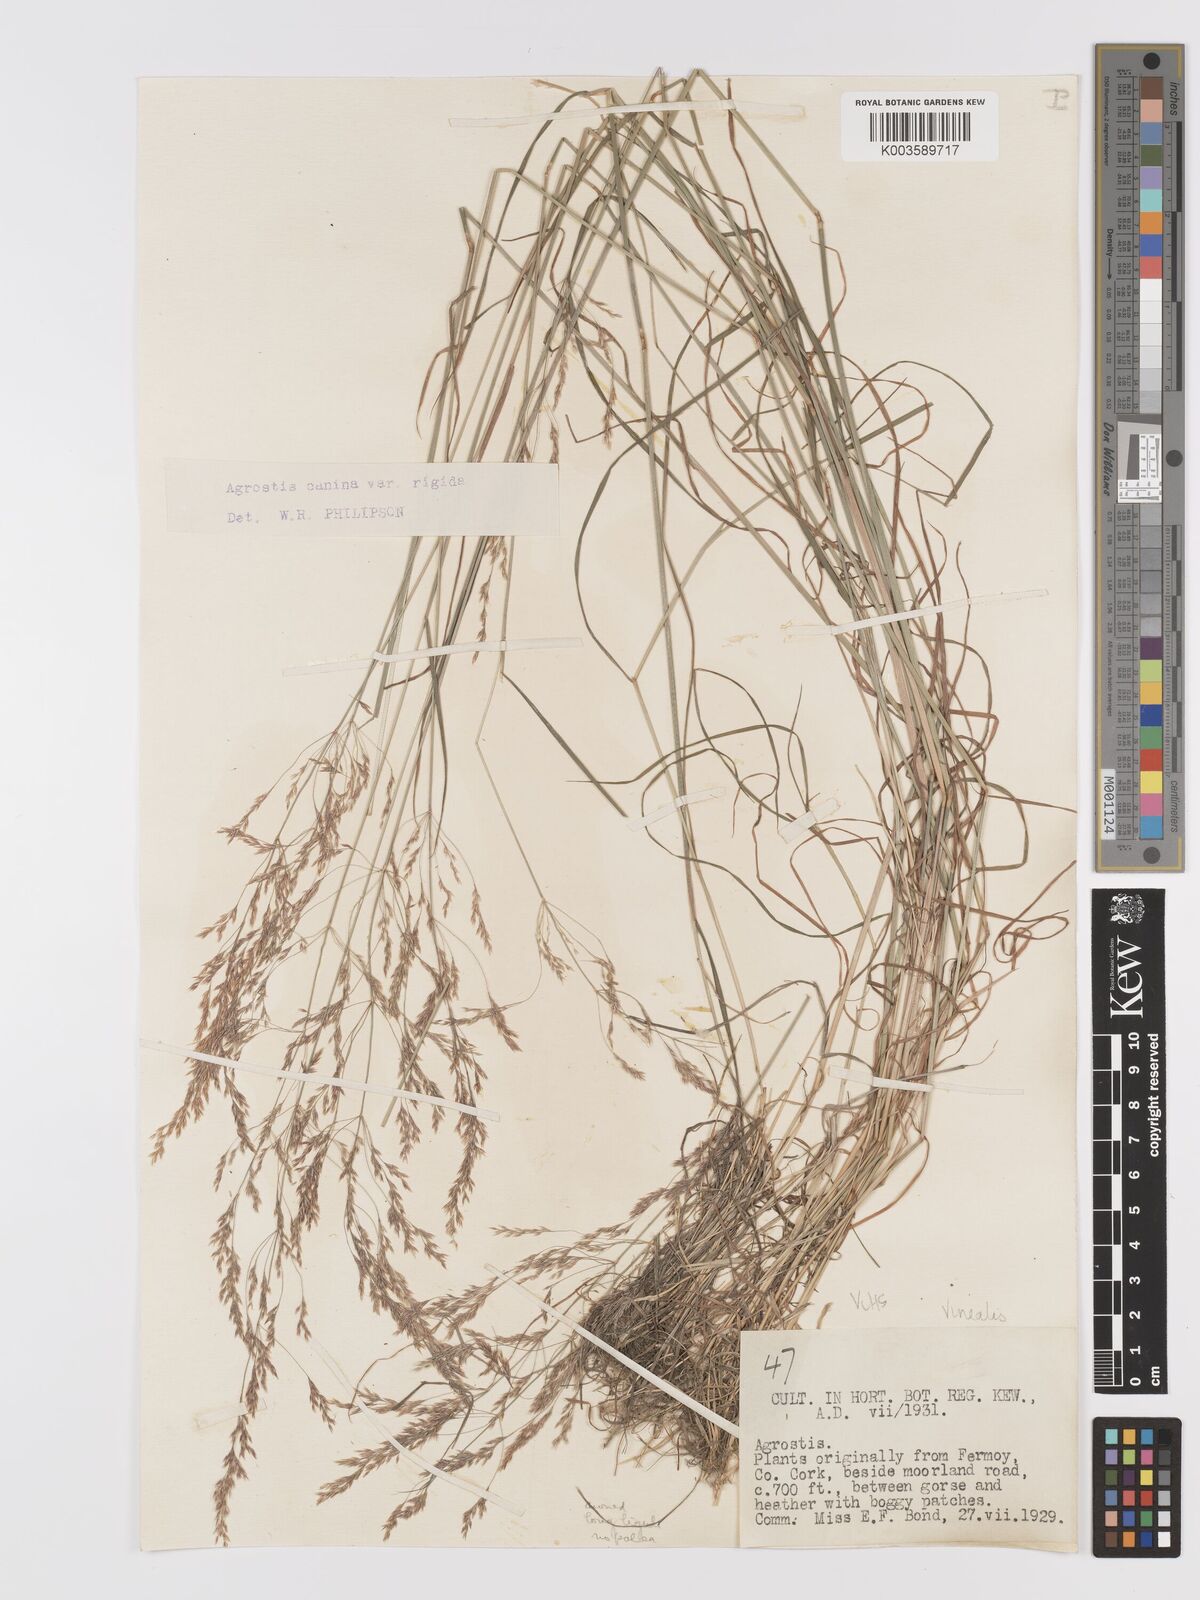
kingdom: Plantae
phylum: Tracheophyta
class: Liliopsida
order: Poales
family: Poaceae
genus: Agrostis
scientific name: Agrostis
